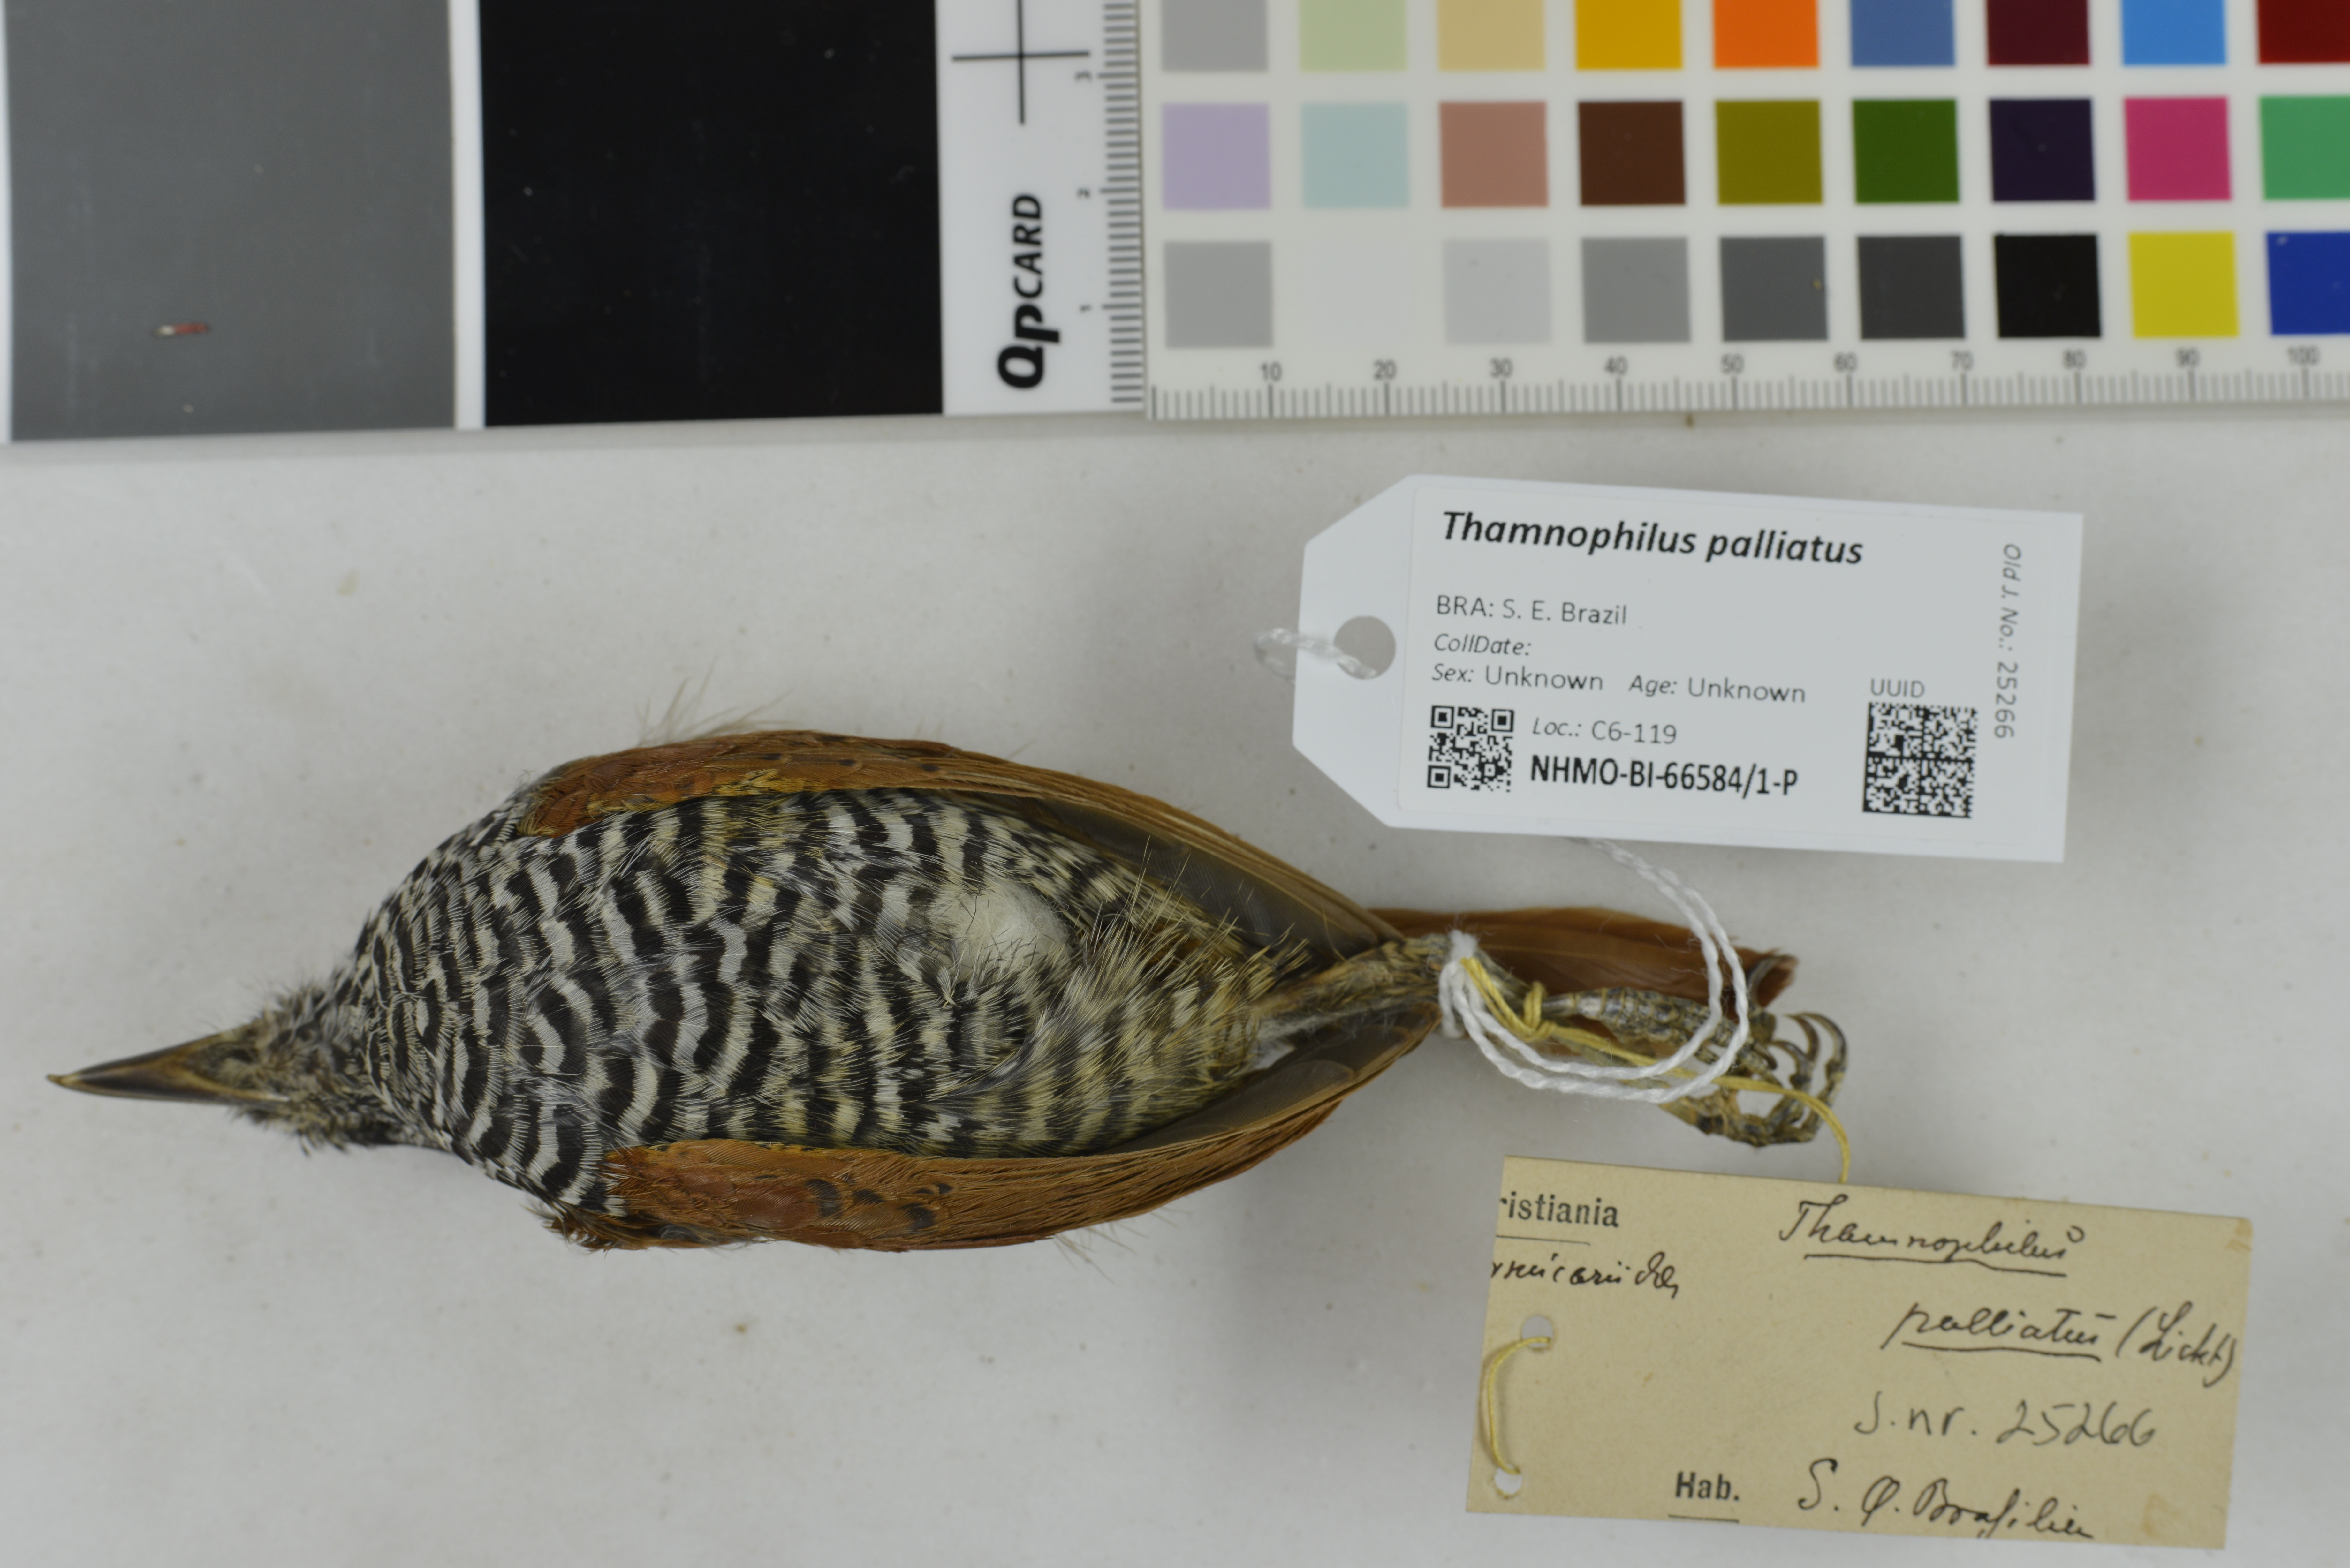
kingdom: Animalia
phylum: Chordata
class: Aves
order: Passeriformes
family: Thamnophilidae
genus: Thamnophilus
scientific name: Thamnophilus palliatus
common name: Chestnut-backed antshrike
